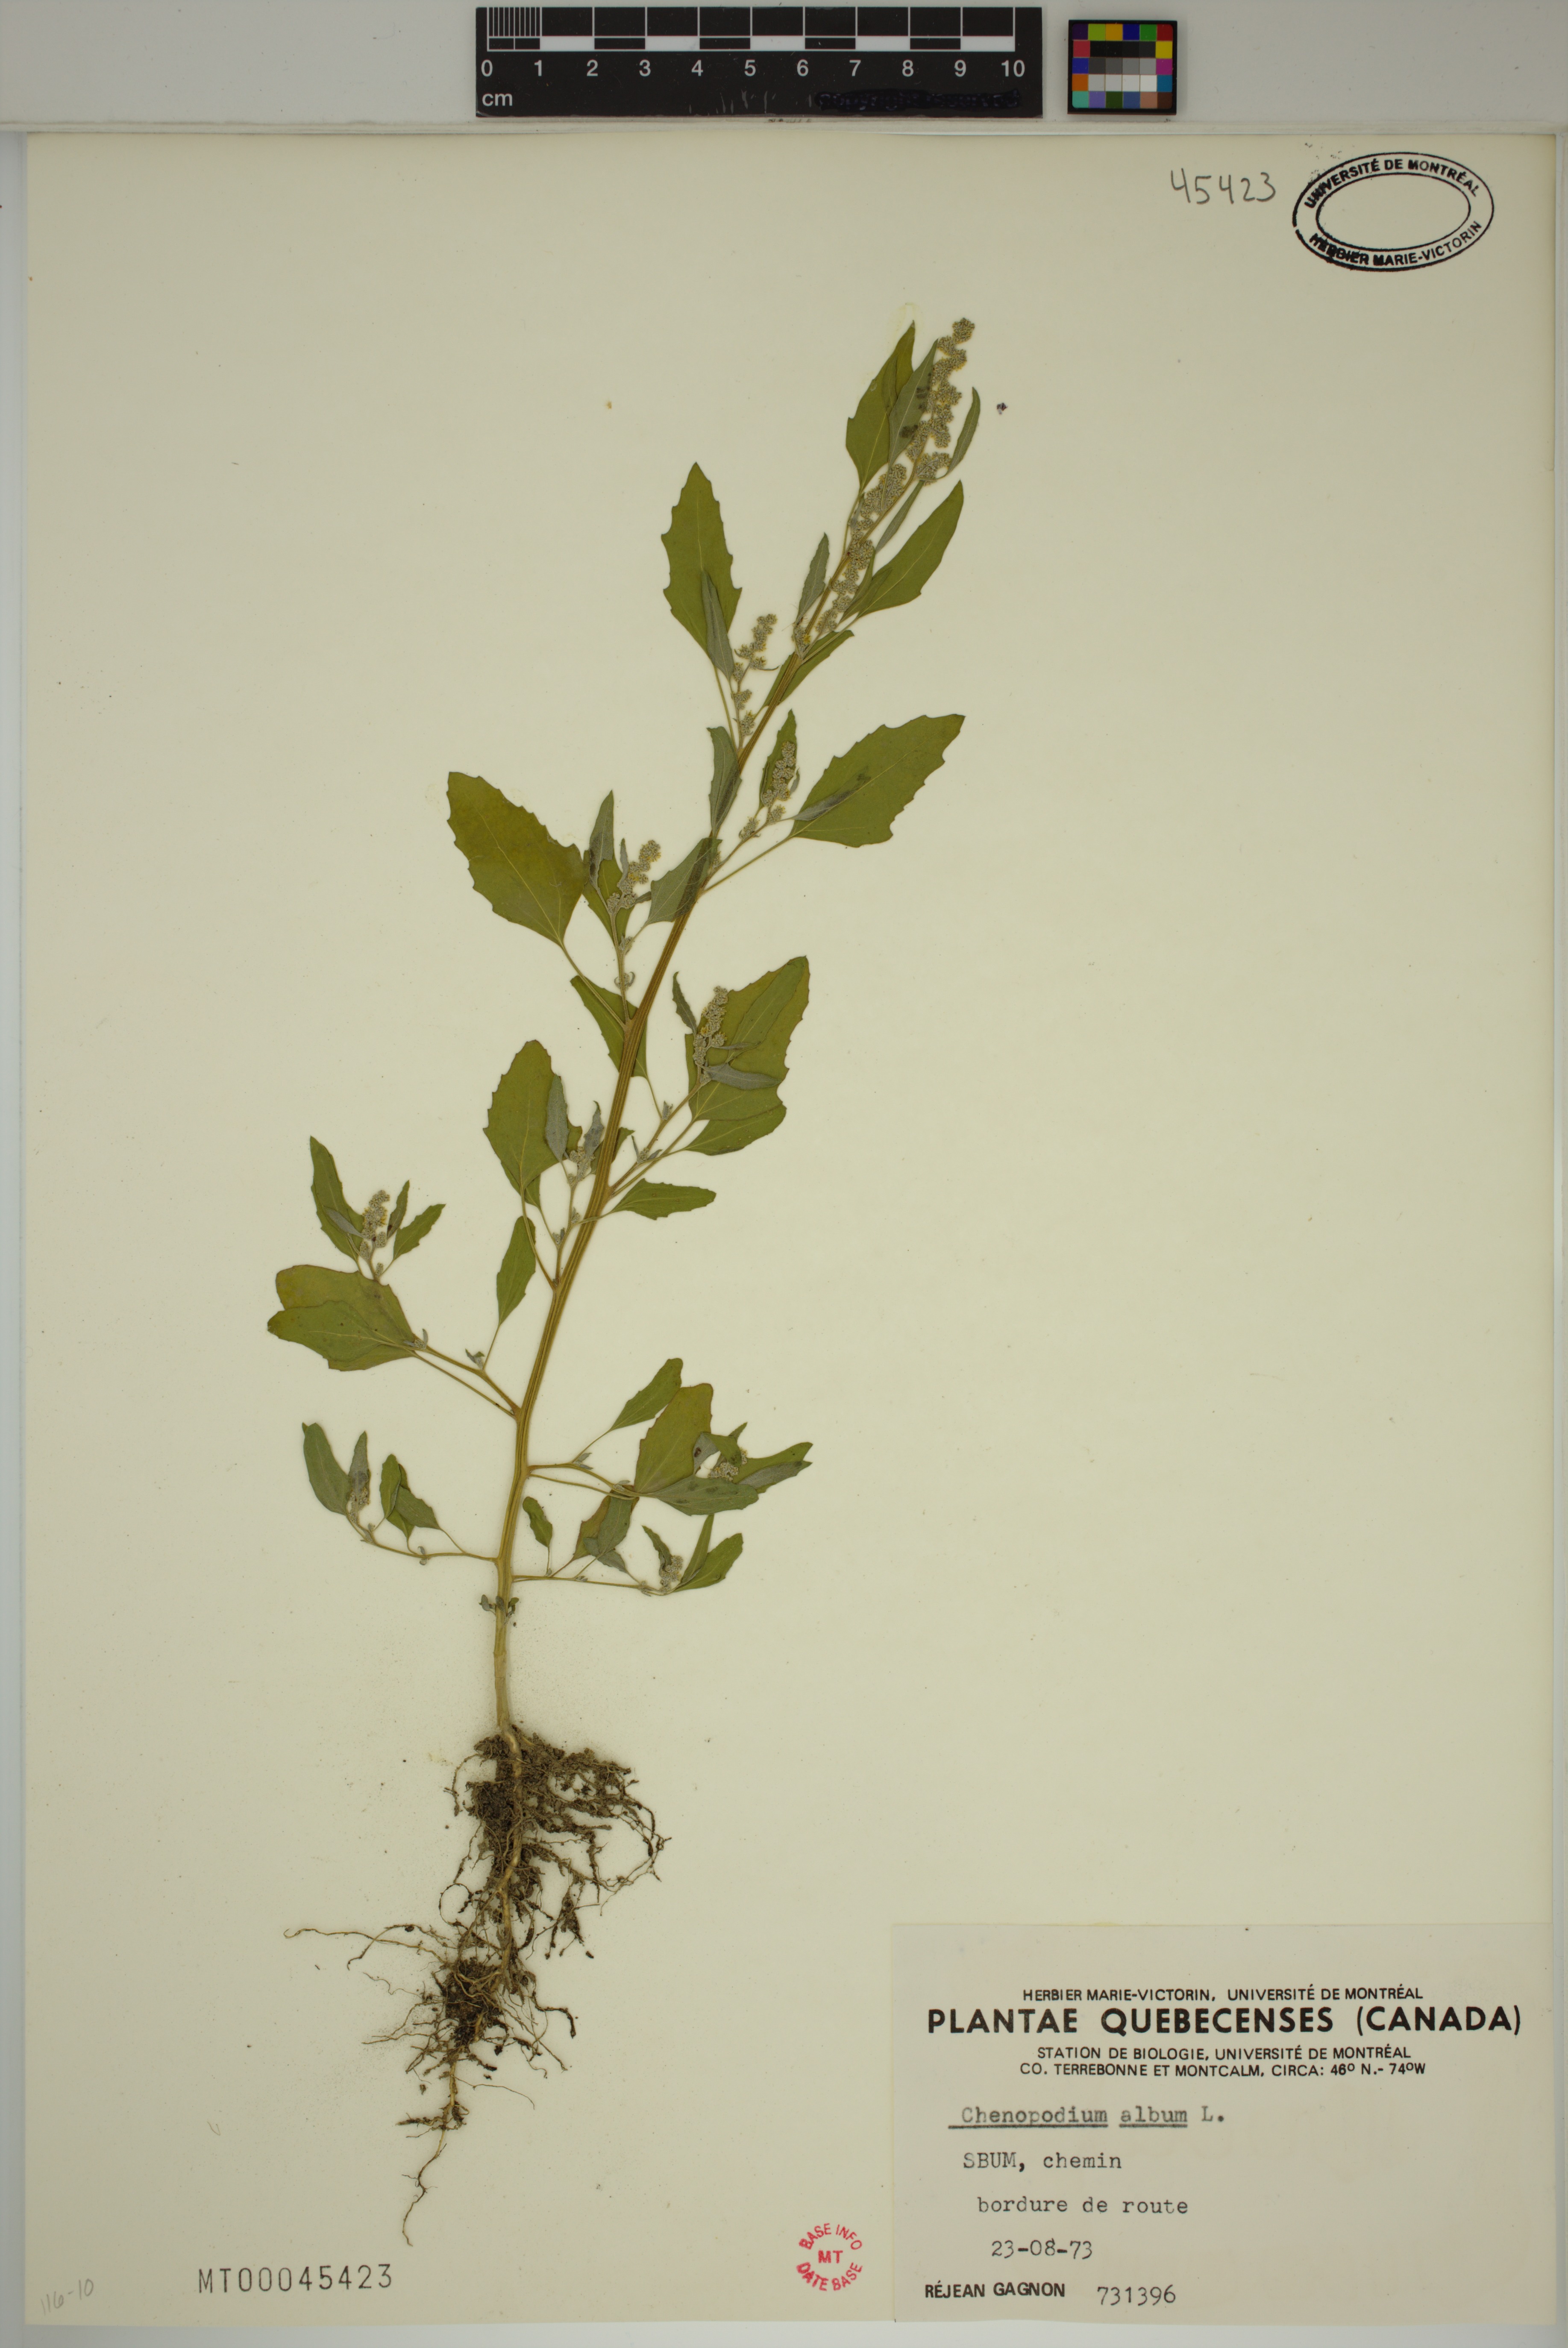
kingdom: Plantae
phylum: Tracheophyta
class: Magnoliopsida
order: Caryophyllales
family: Amaranthaceae
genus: Chenopodium
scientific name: Chenopodium album
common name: Fat-hen
